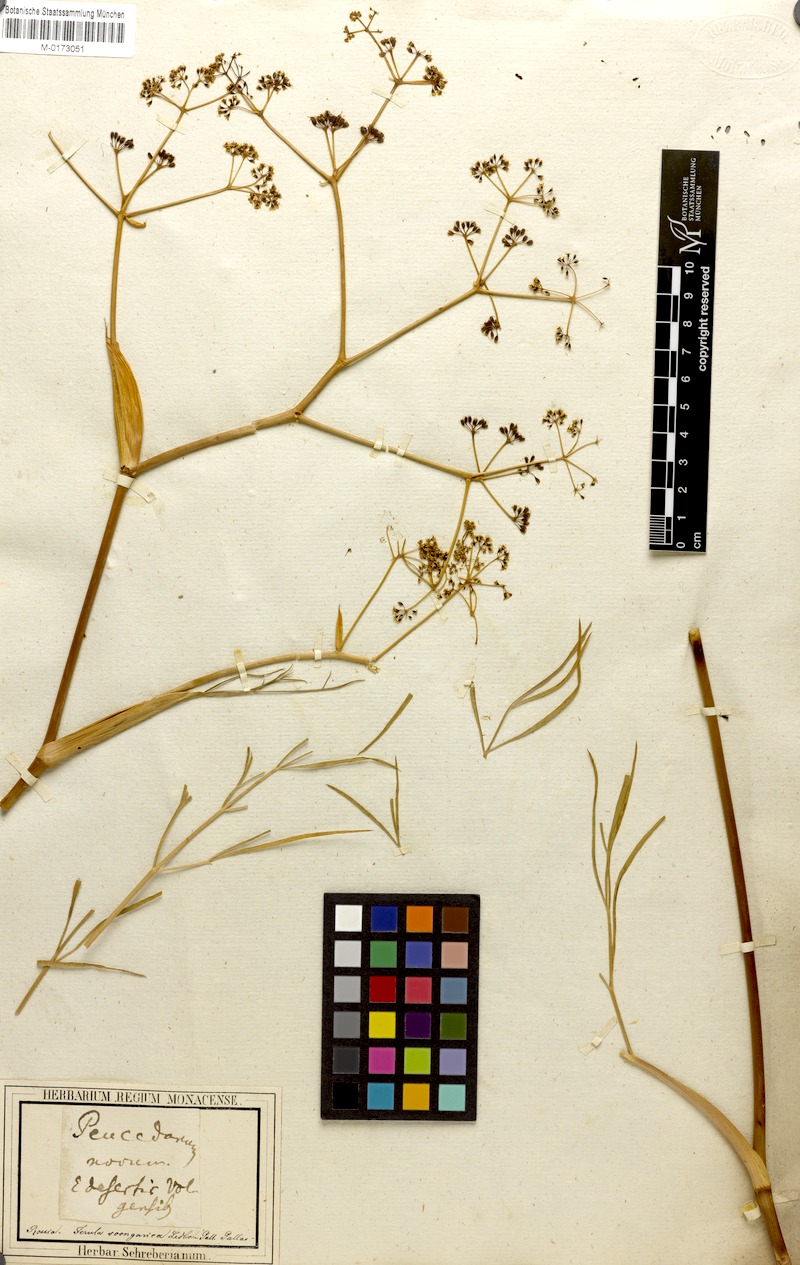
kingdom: Plantae
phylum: Tracheophyta
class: Magnoliopsida
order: Apiales
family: Apiaceae
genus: Ferula
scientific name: Ferula songarica
